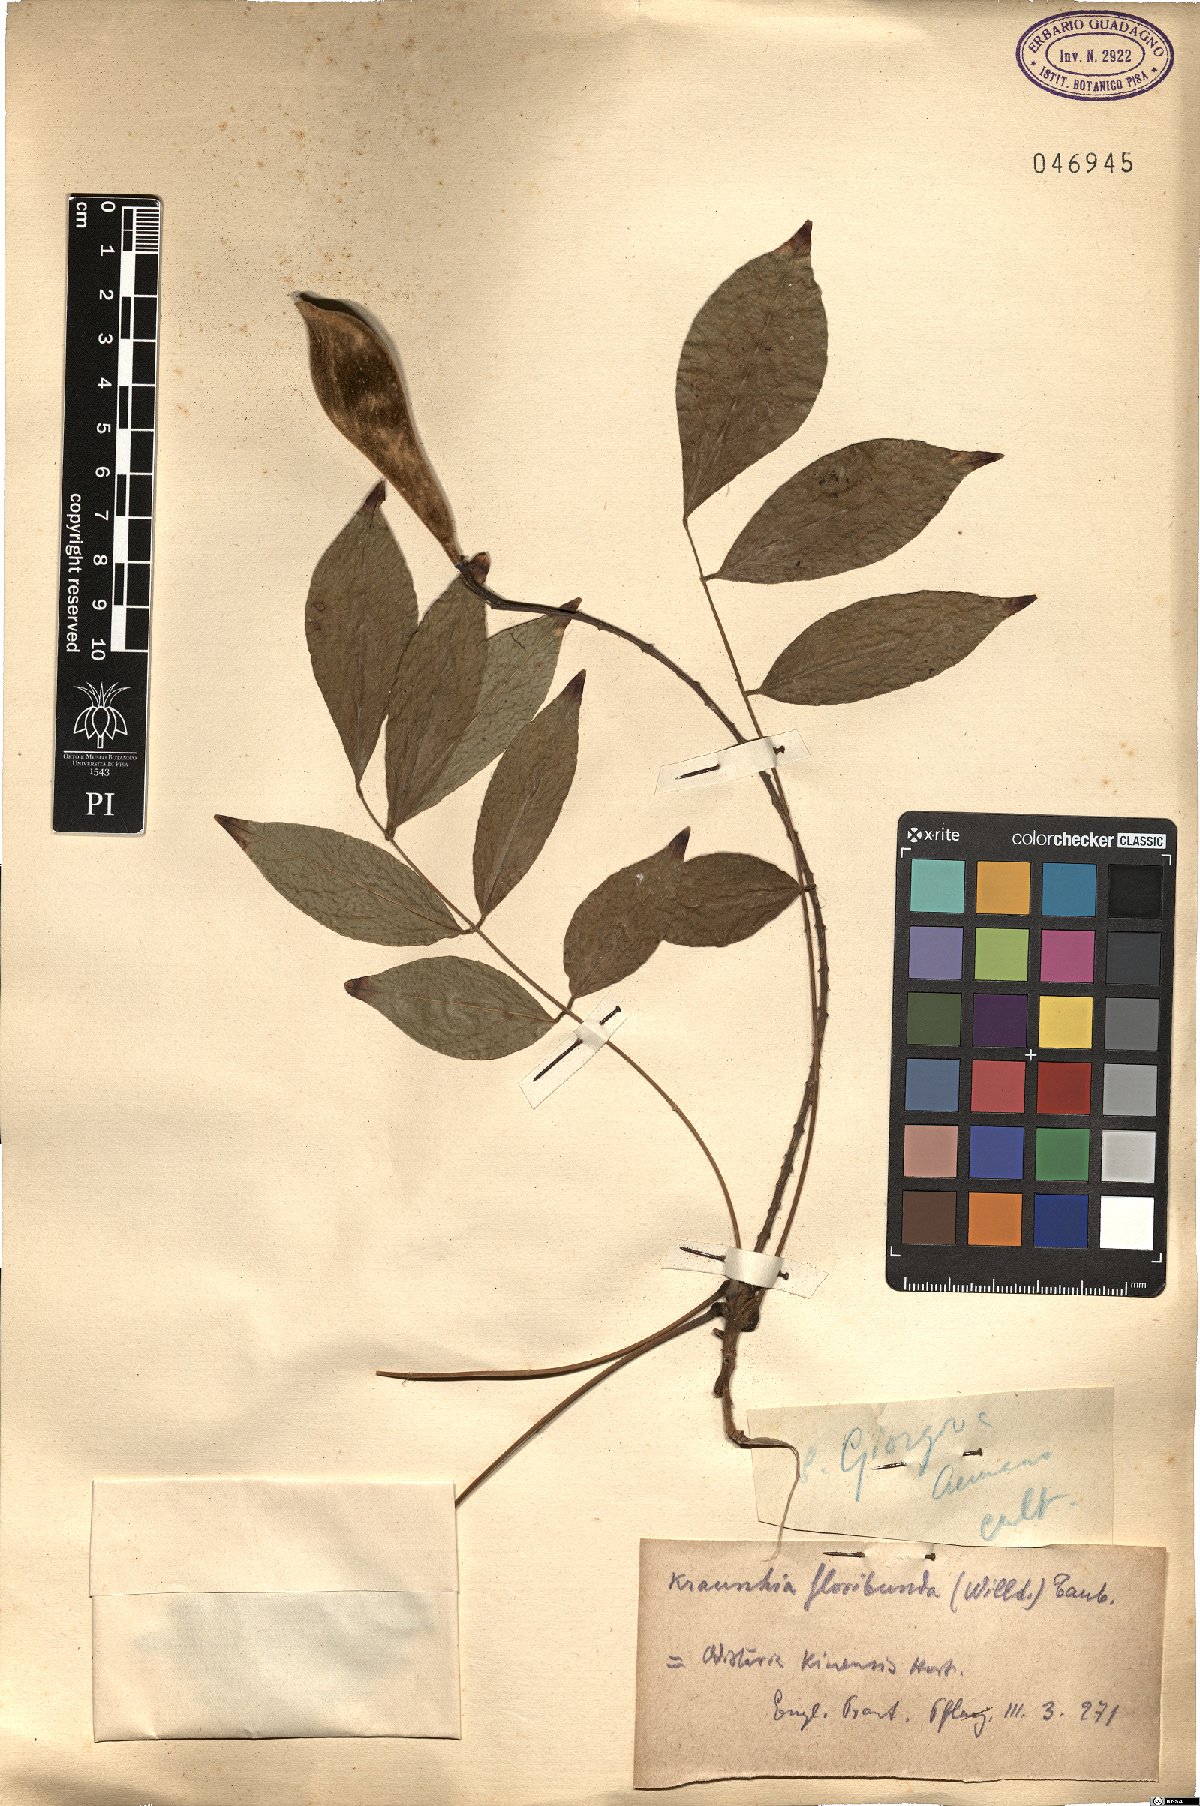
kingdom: Plantae
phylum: Tracheophyta
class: Magnoliopsida
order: Fabales
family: Fabaceae
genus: Wisteria
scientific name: Wisteria floribunda
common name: Japanese wisteria
